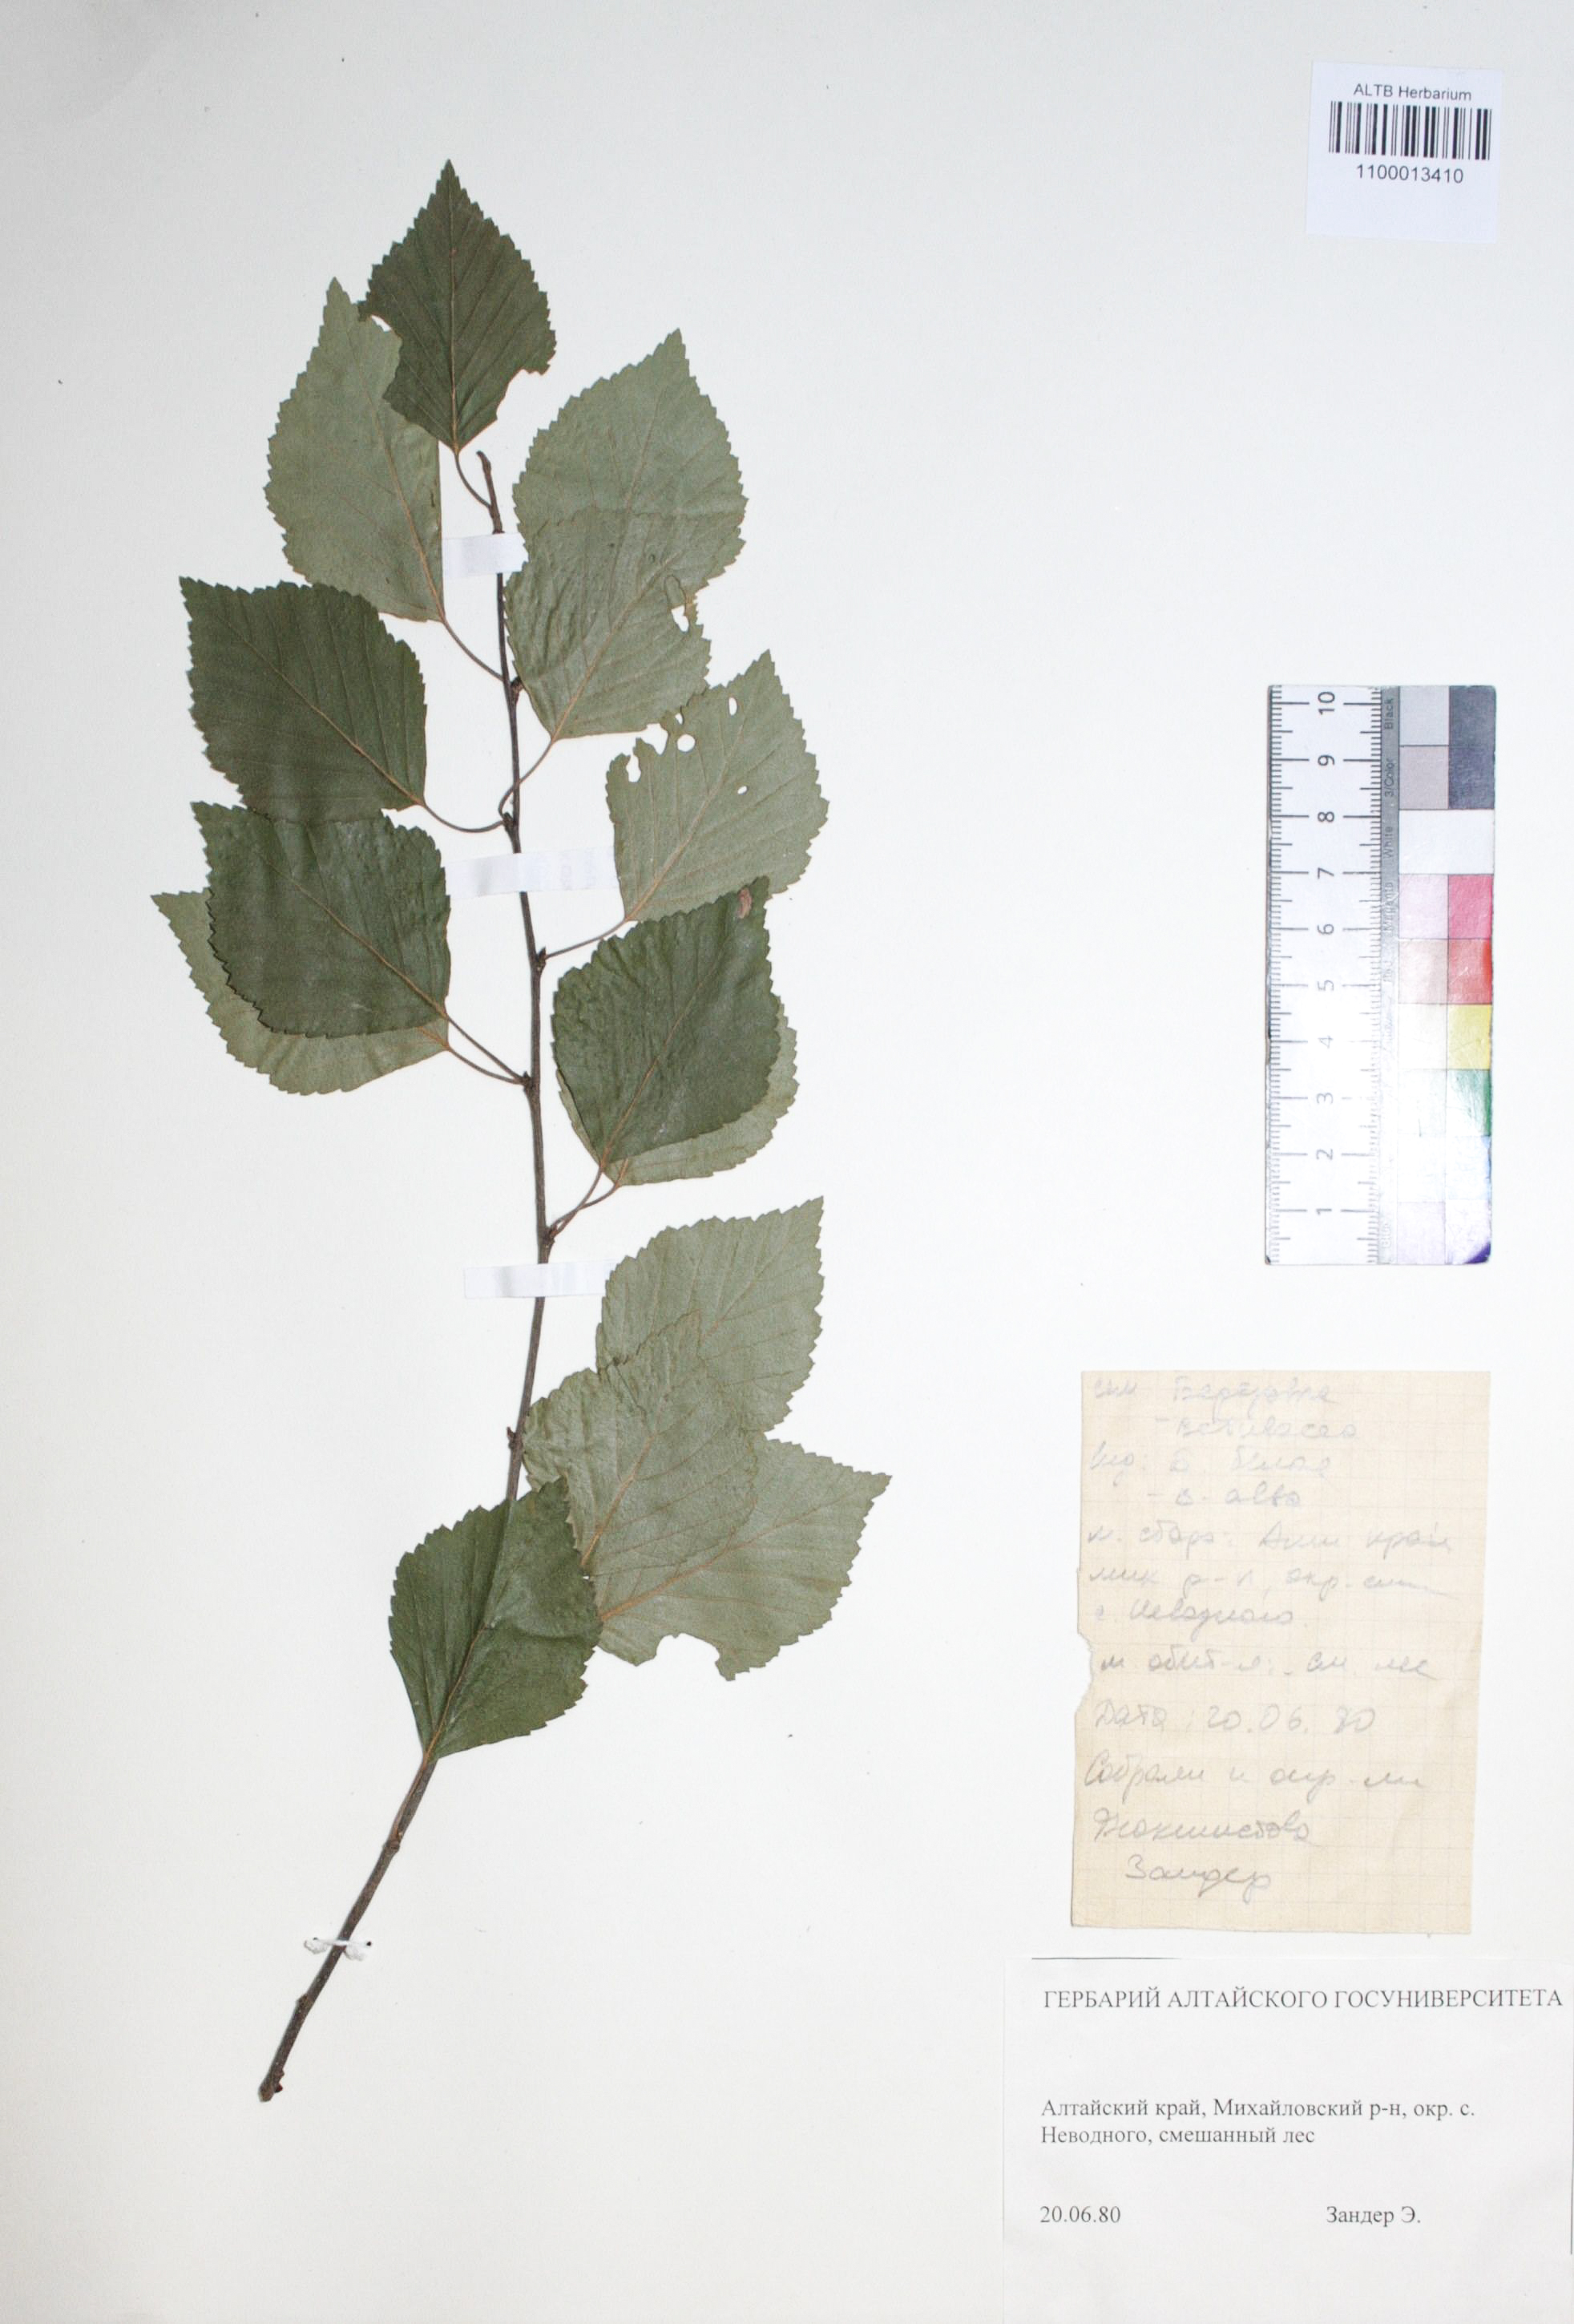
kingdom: Plantae
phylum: Tracheophyta
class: Magnoliopsida
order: Fagales
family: Betulaceae
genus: Betula
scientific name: Betula pubescens
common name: Downy birch
